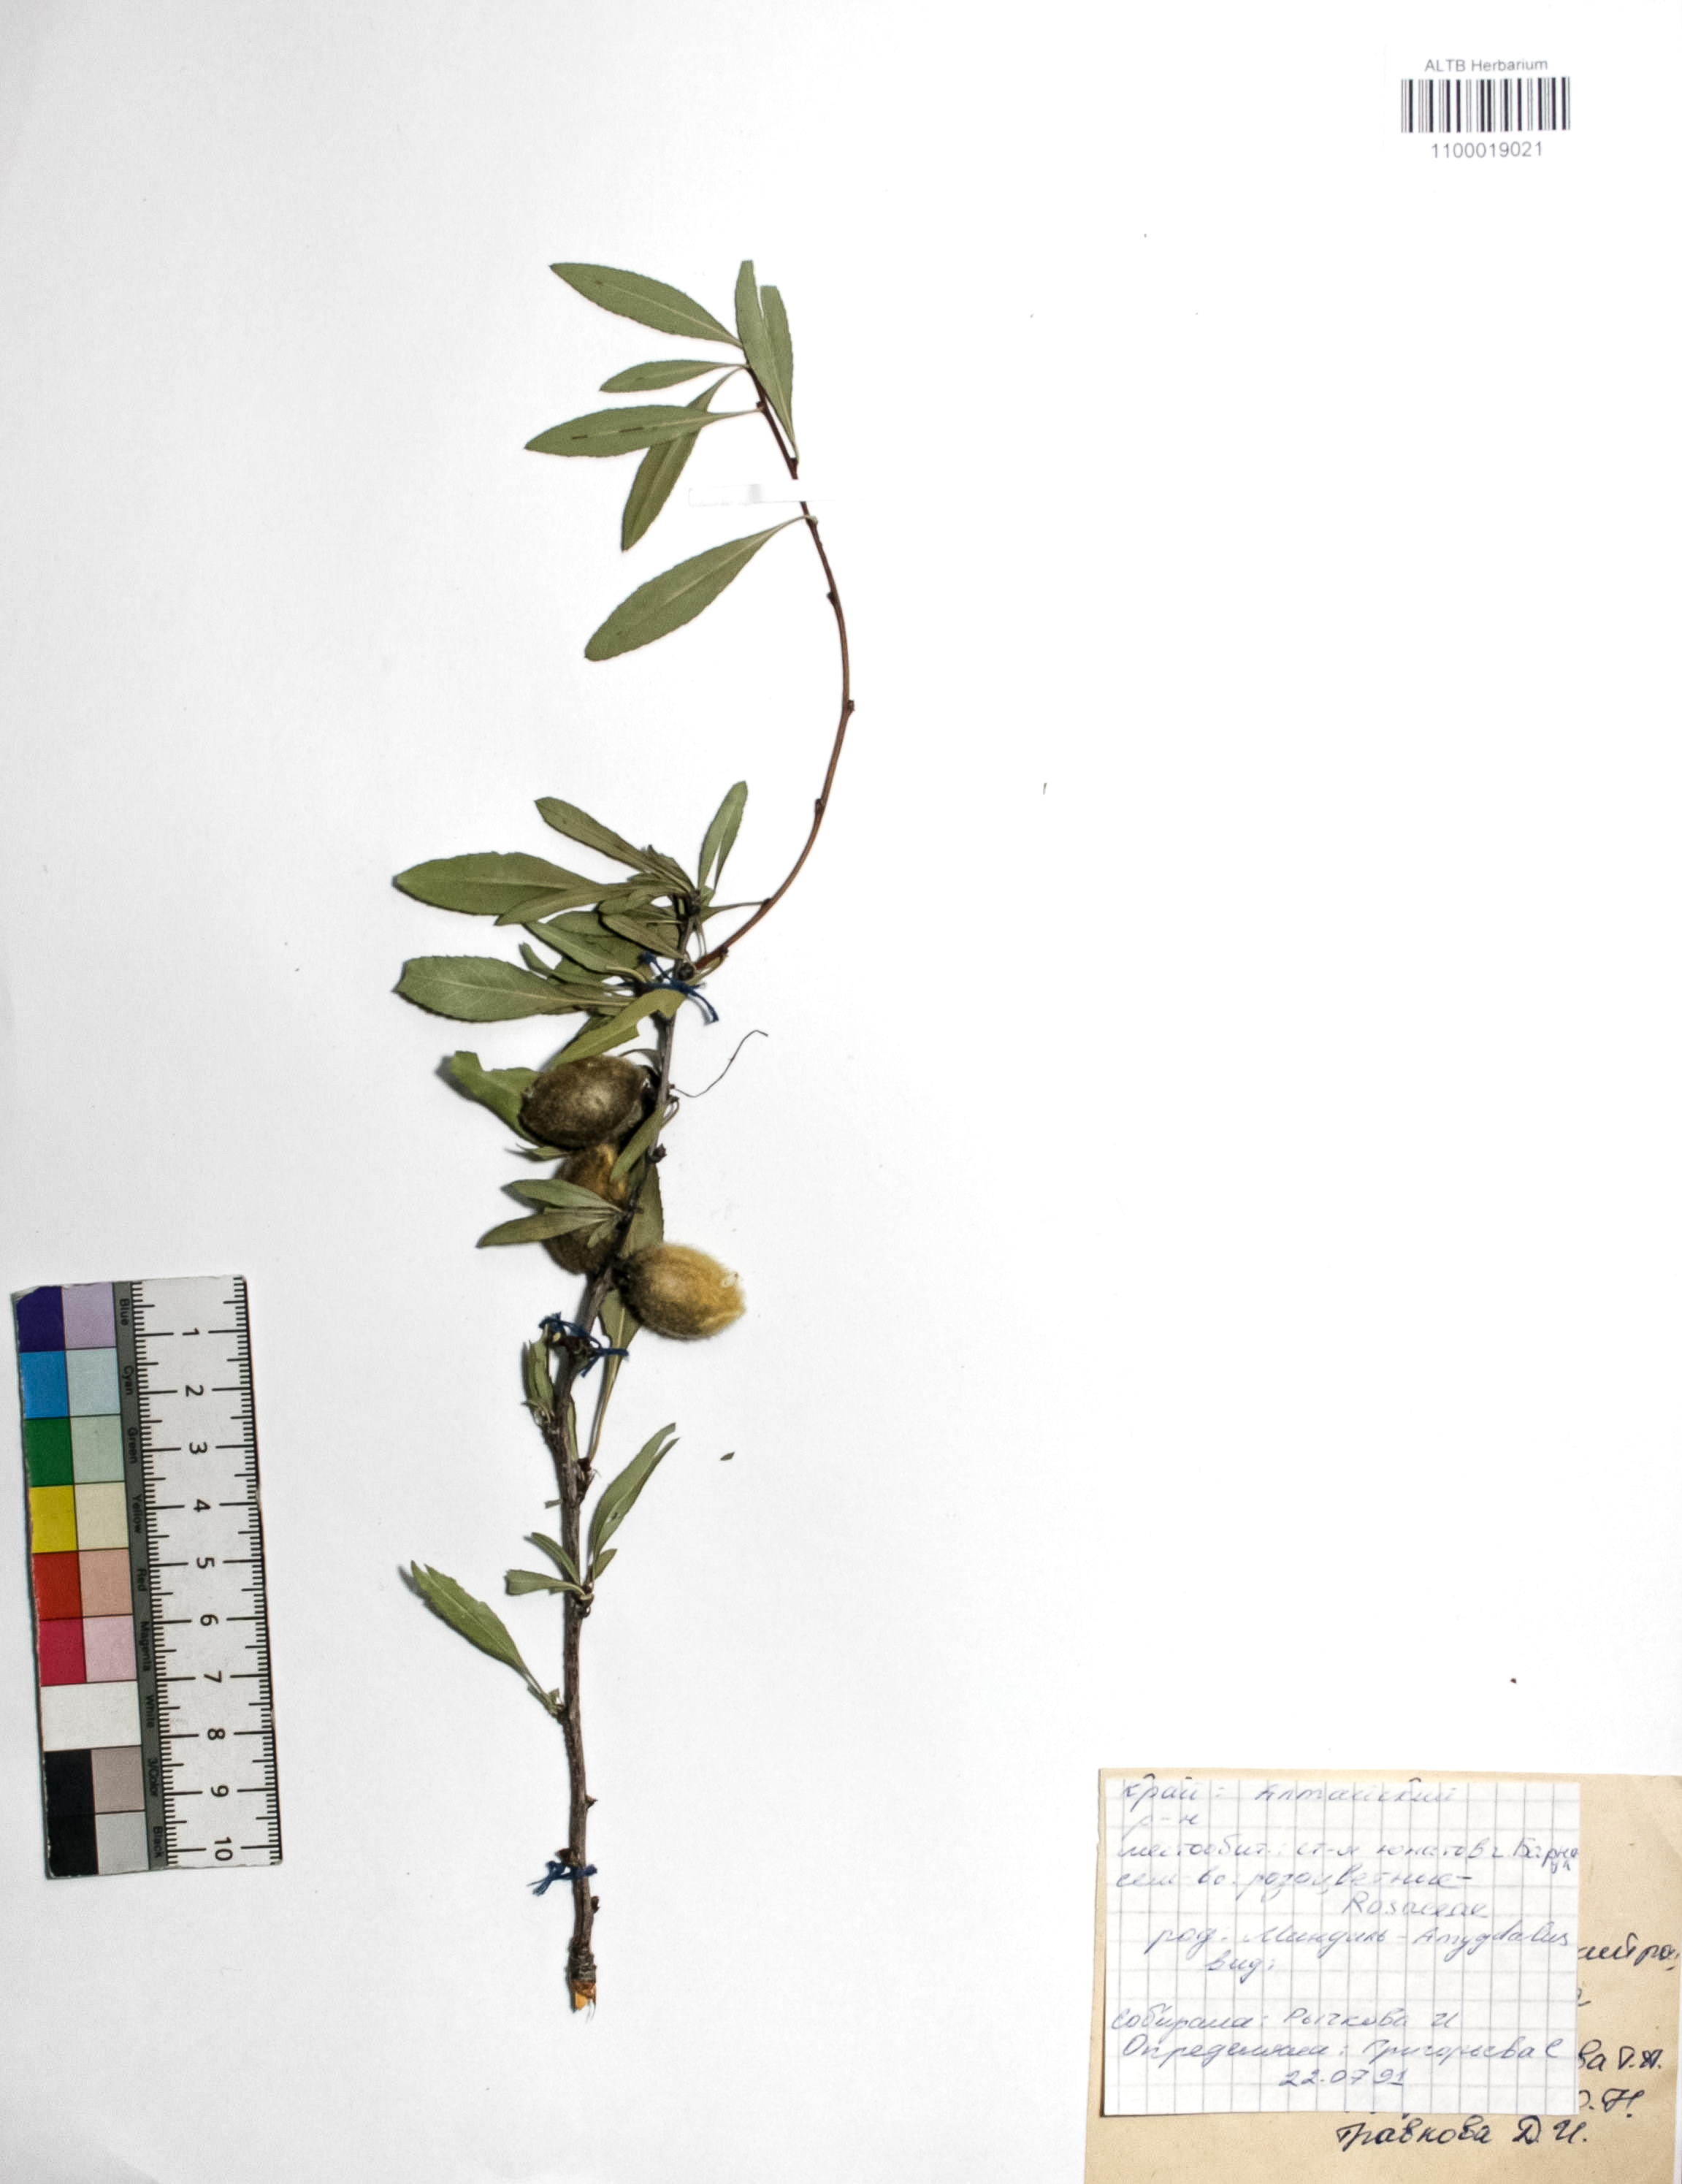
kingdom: Plantae
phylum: Tracheophyta
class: Magnoliopsida
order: Rosales
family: Rosaceae
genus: Prunus
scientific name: Prunus tenella
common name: Dwarf russian almond
